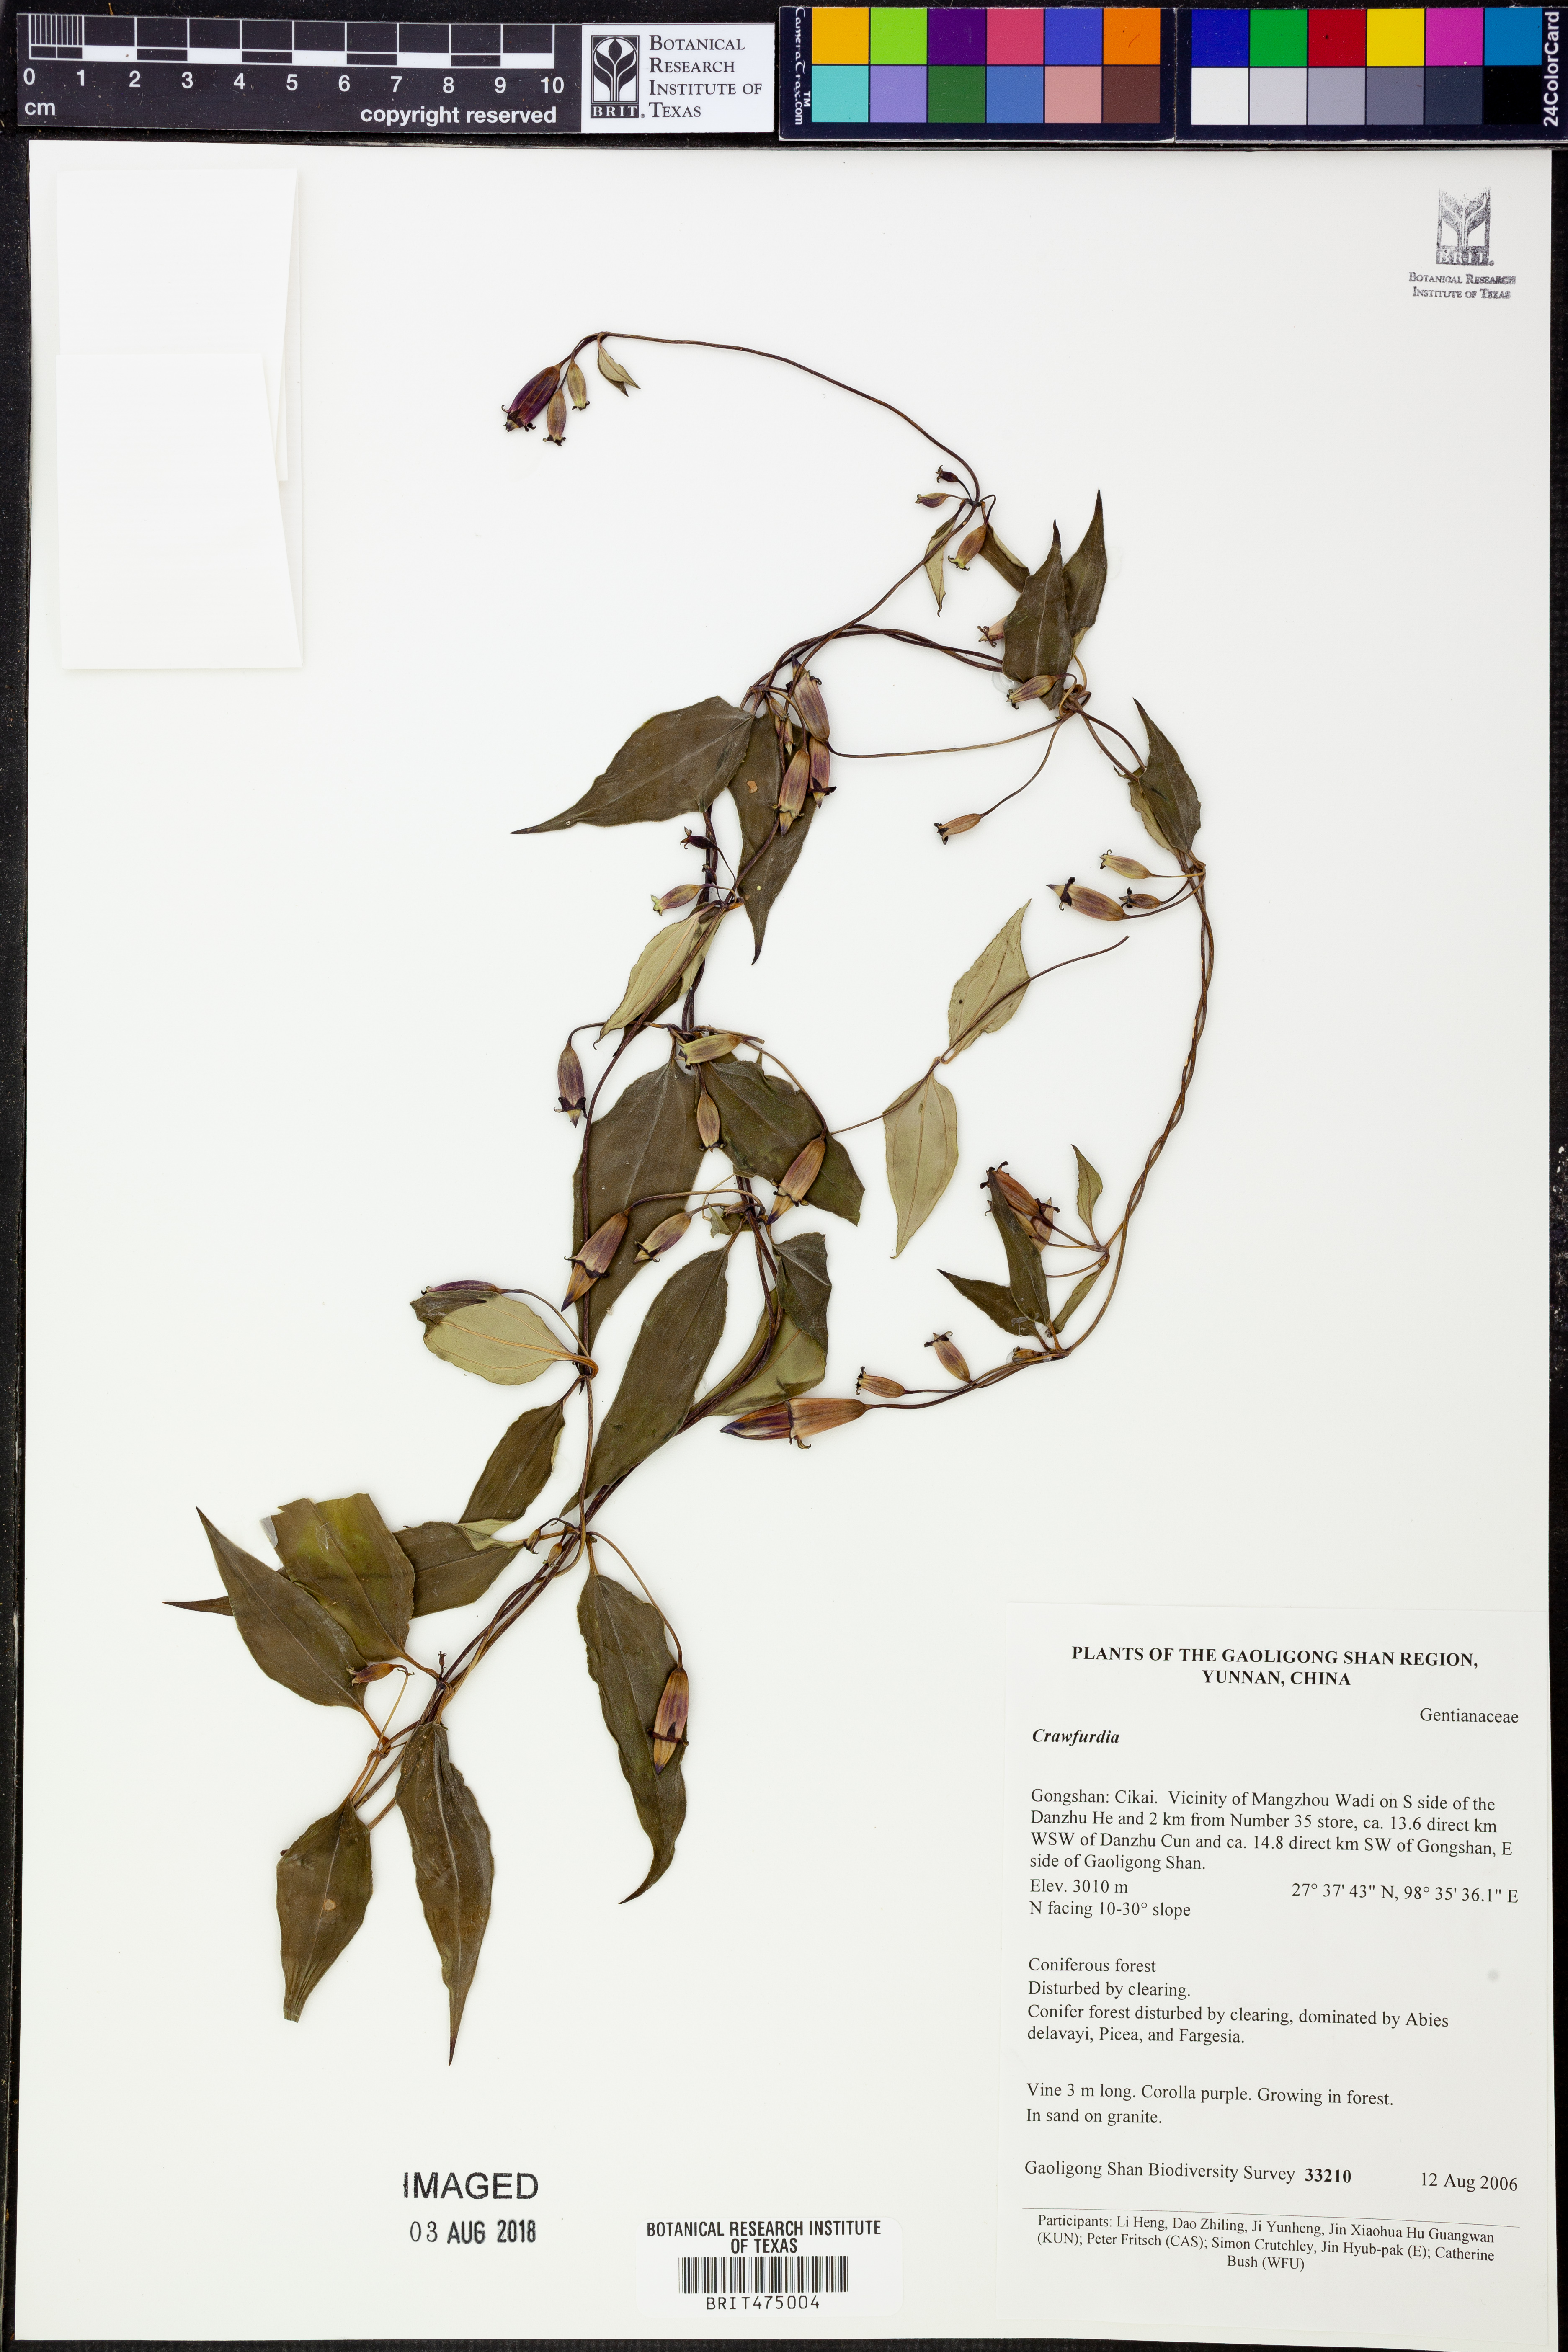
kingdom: Plantae
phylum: Tracheophyta
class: Magnoliopsida
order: Gentianales
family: Gentianaceae
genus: Crawfurdia
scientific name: Crawfurdia
